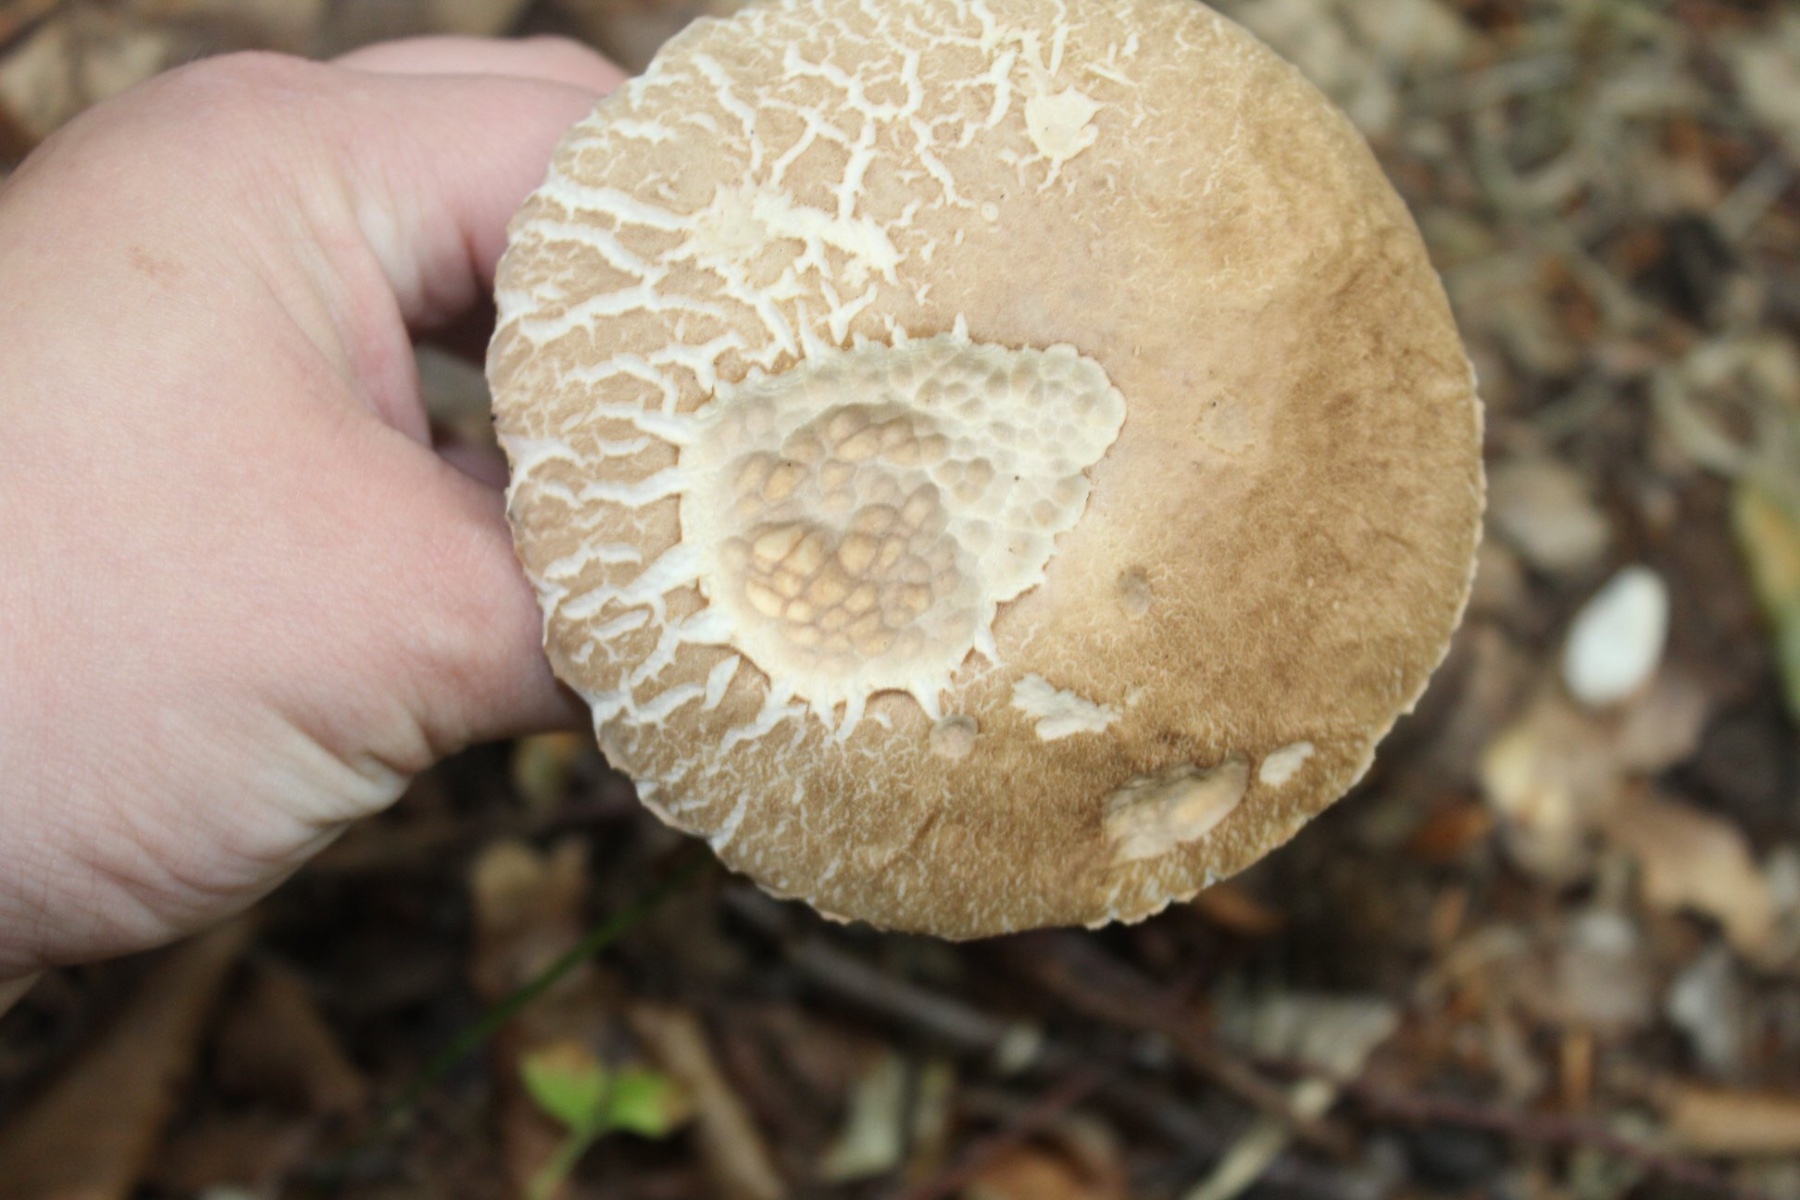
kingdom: Fungi
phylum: Basidiomycota
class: Agaricomycetes
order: Boletales
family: Boletaceae
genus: Boletus
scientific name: Boletus reticulatus
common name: sommer-rørhat
